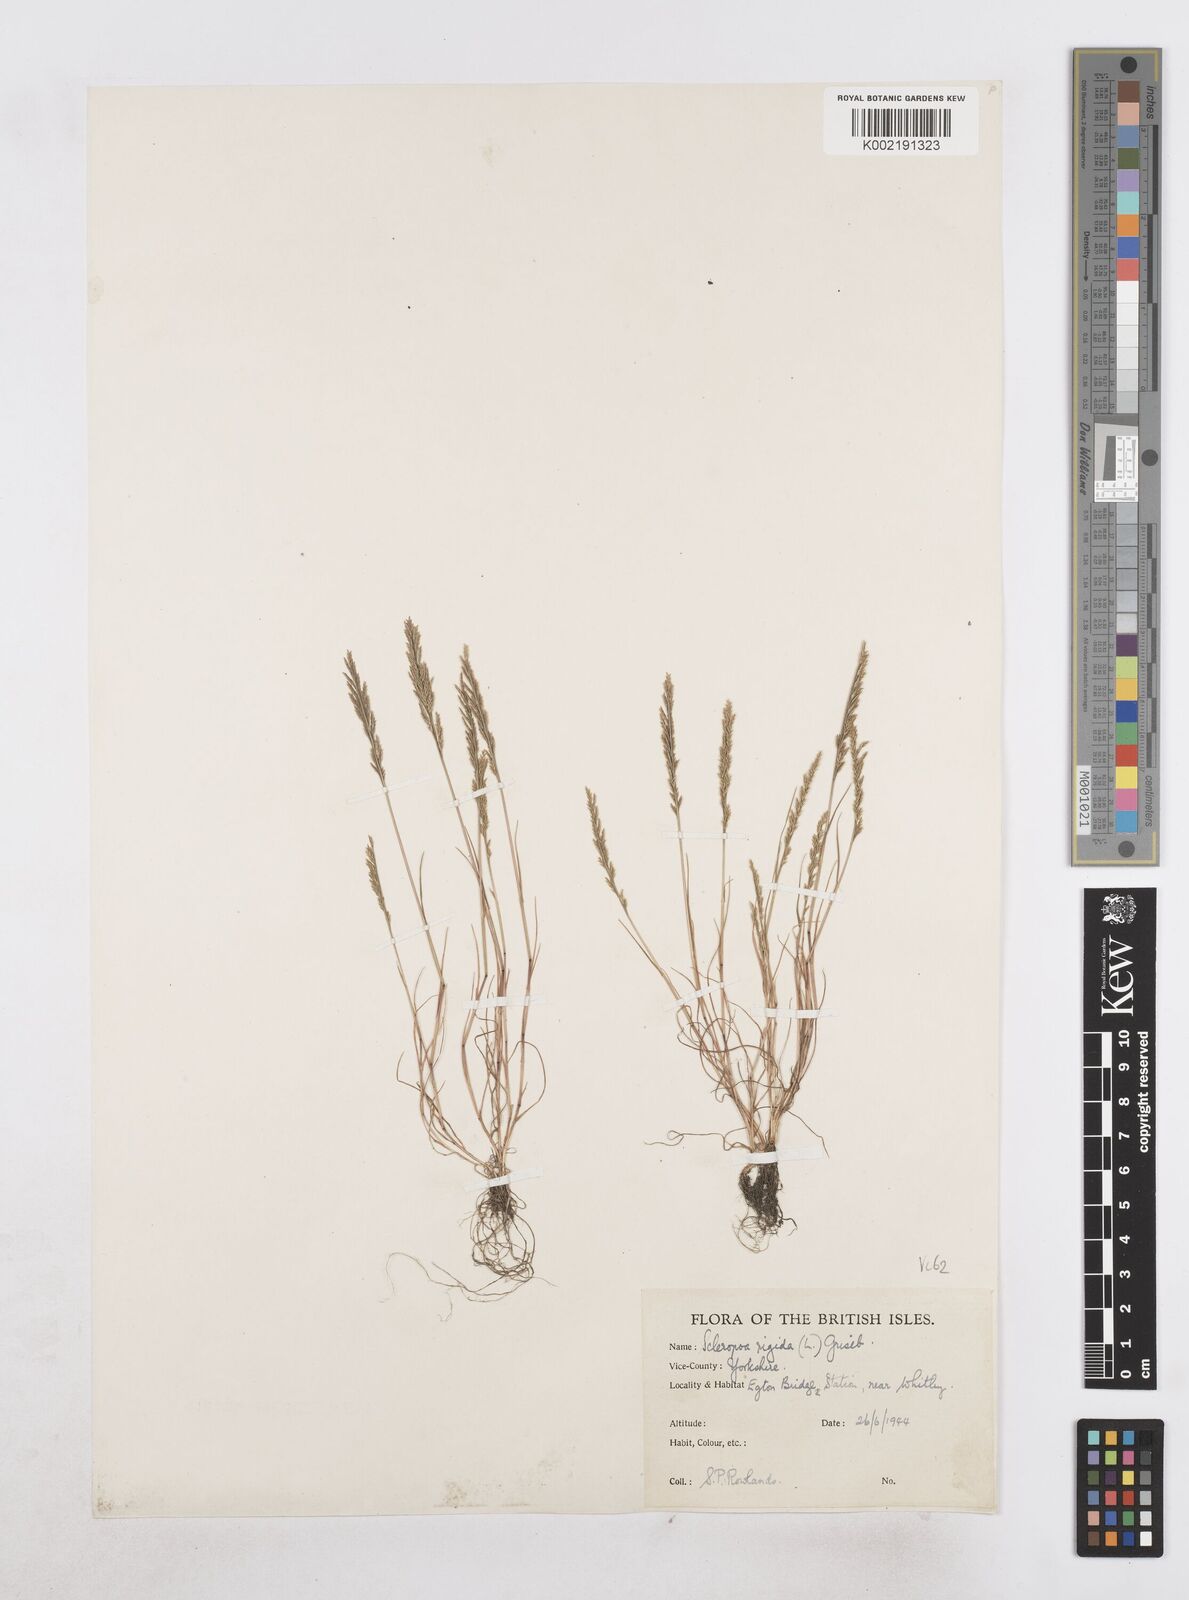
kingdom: Plantae
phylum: Tracheophyta
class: Liliopsida
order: Poales
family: Poaceae
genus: Catapodium
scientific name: Catapodium rigidum
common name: Fern-grass
